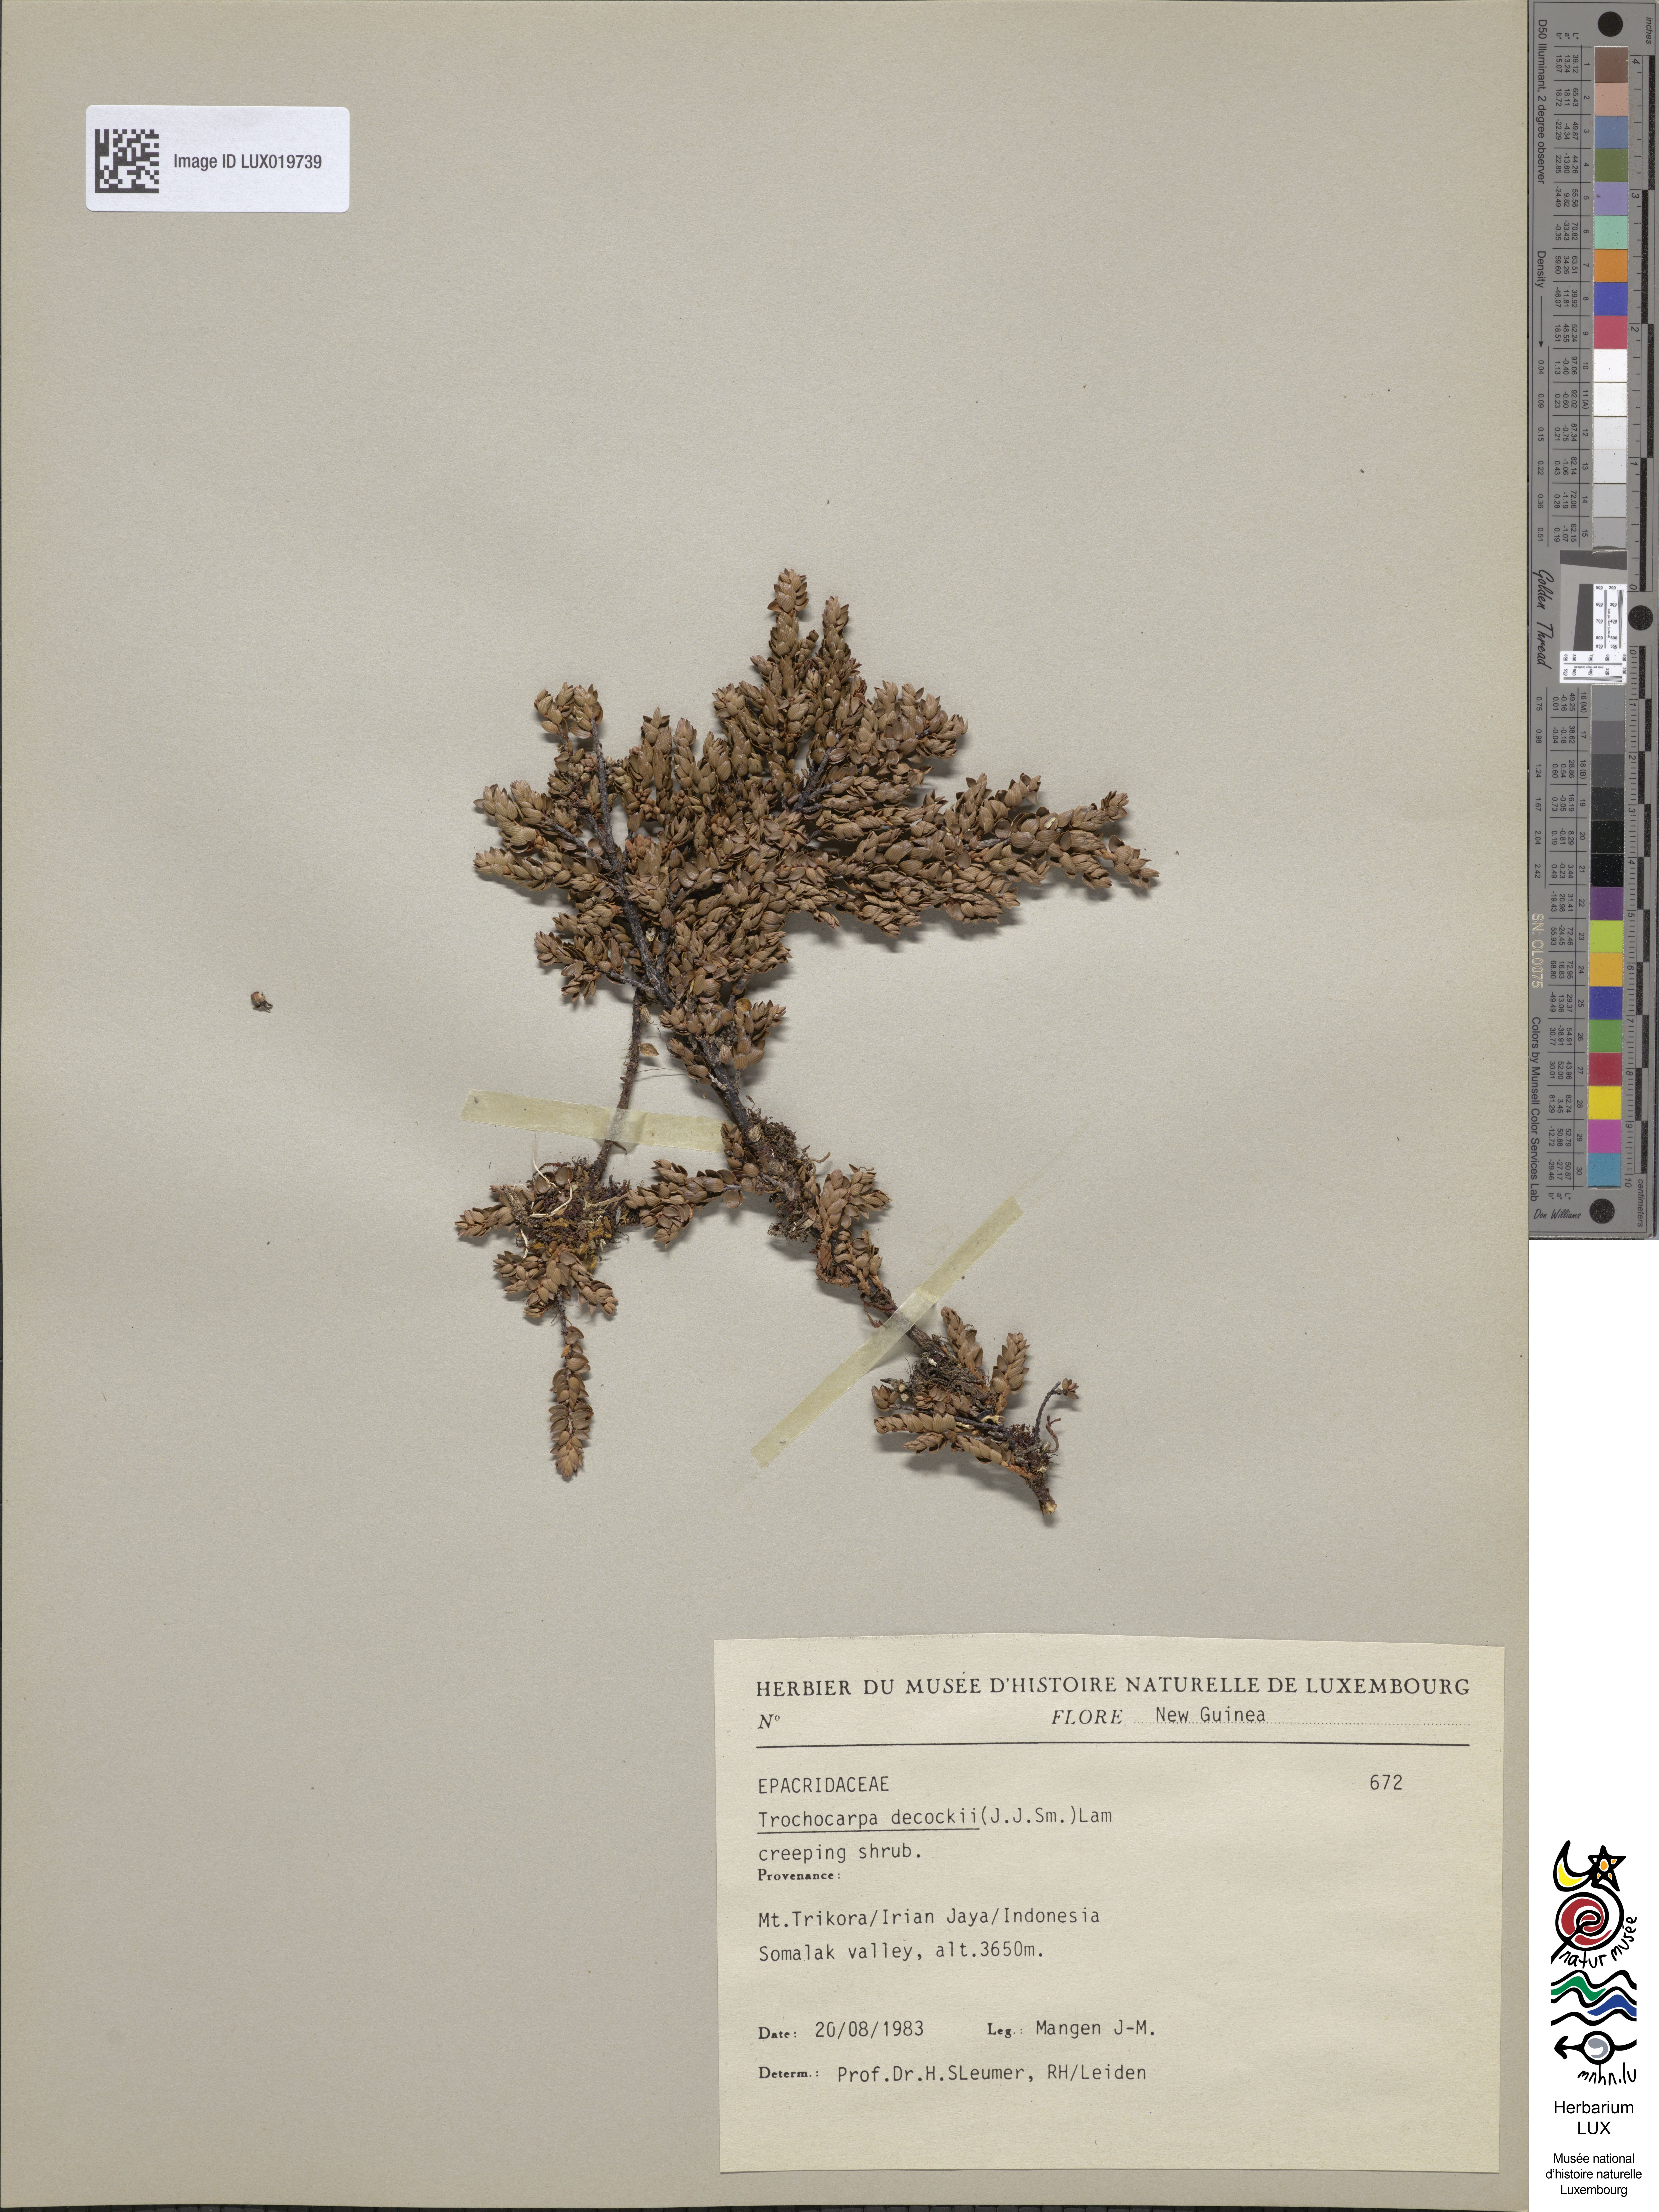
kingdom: Plantae
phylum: Tracheophyta
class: Magnoliopsida
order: Ericales
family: Ericaceae
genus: Trochocarpa
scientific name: Trochocarpa dekockii
